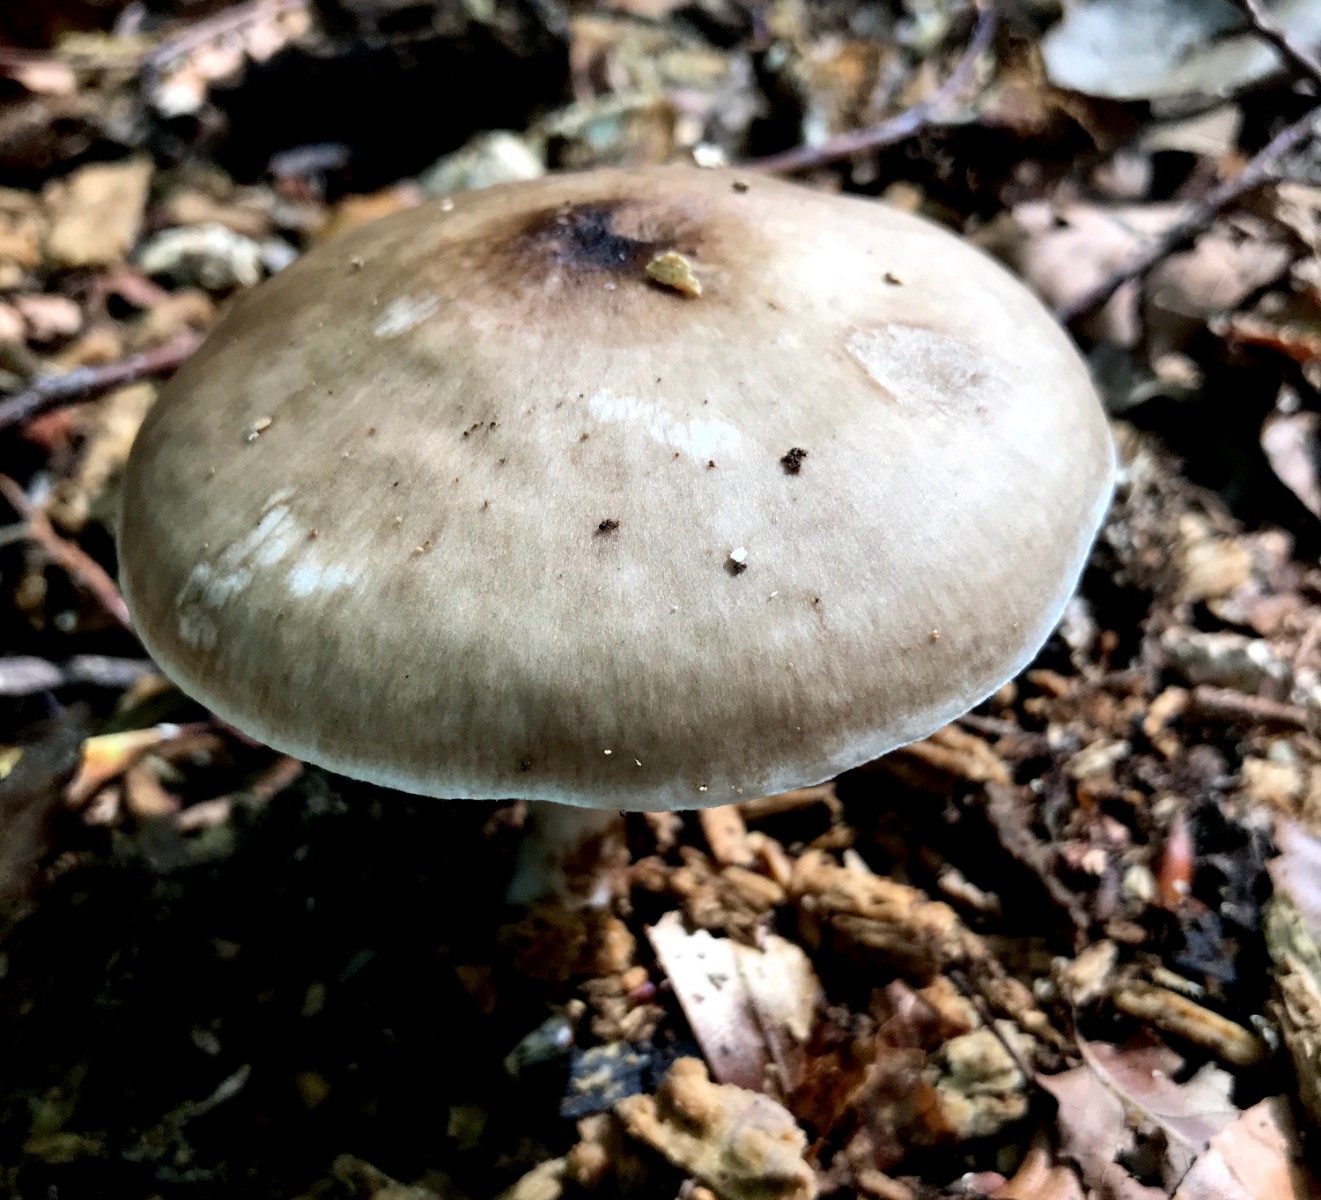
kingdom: Fungi
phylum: Basidiomycota
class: Agaricomycetes
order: Agaricales
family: Pluteaceae
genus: Pluteus
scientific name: Pluteus cervinus
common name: sodfarvet skærmhat
